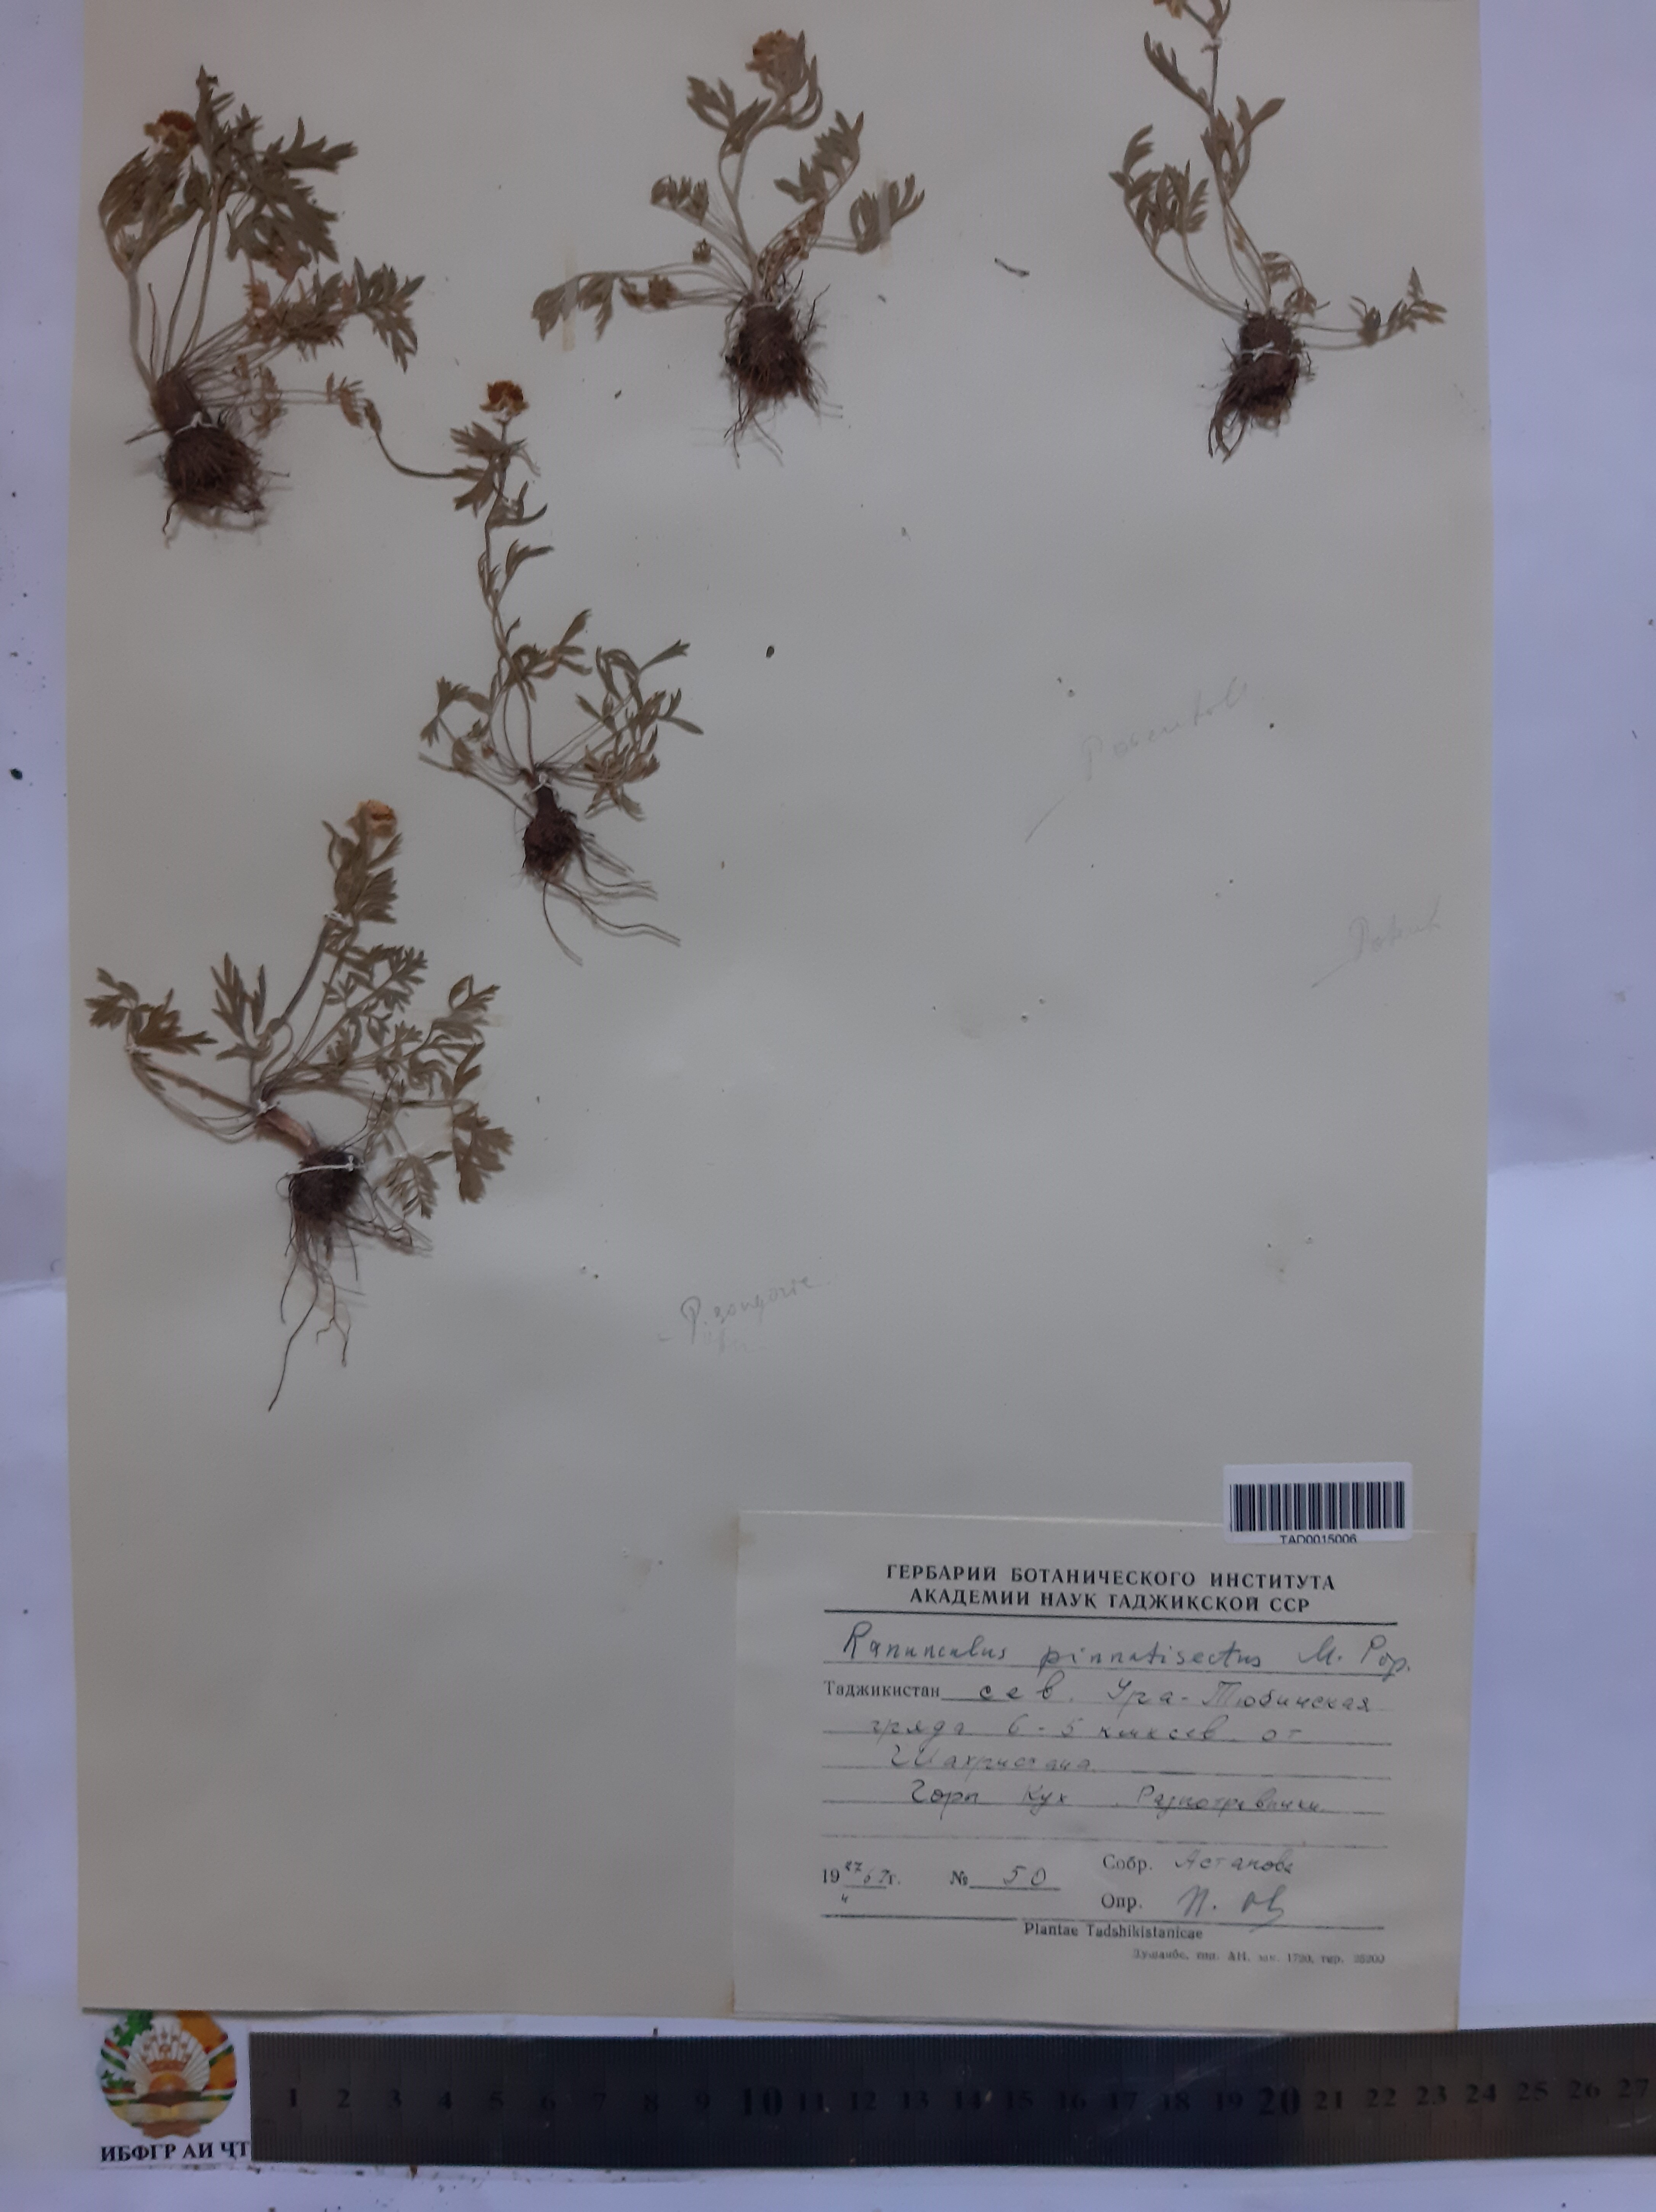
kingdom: Plantae
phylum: Tracheophyta
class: Magnoliopsida
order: Ranunculales
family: Ranunculaceae
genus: Ranunculus
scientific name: Ranunculus pinnatisectus
